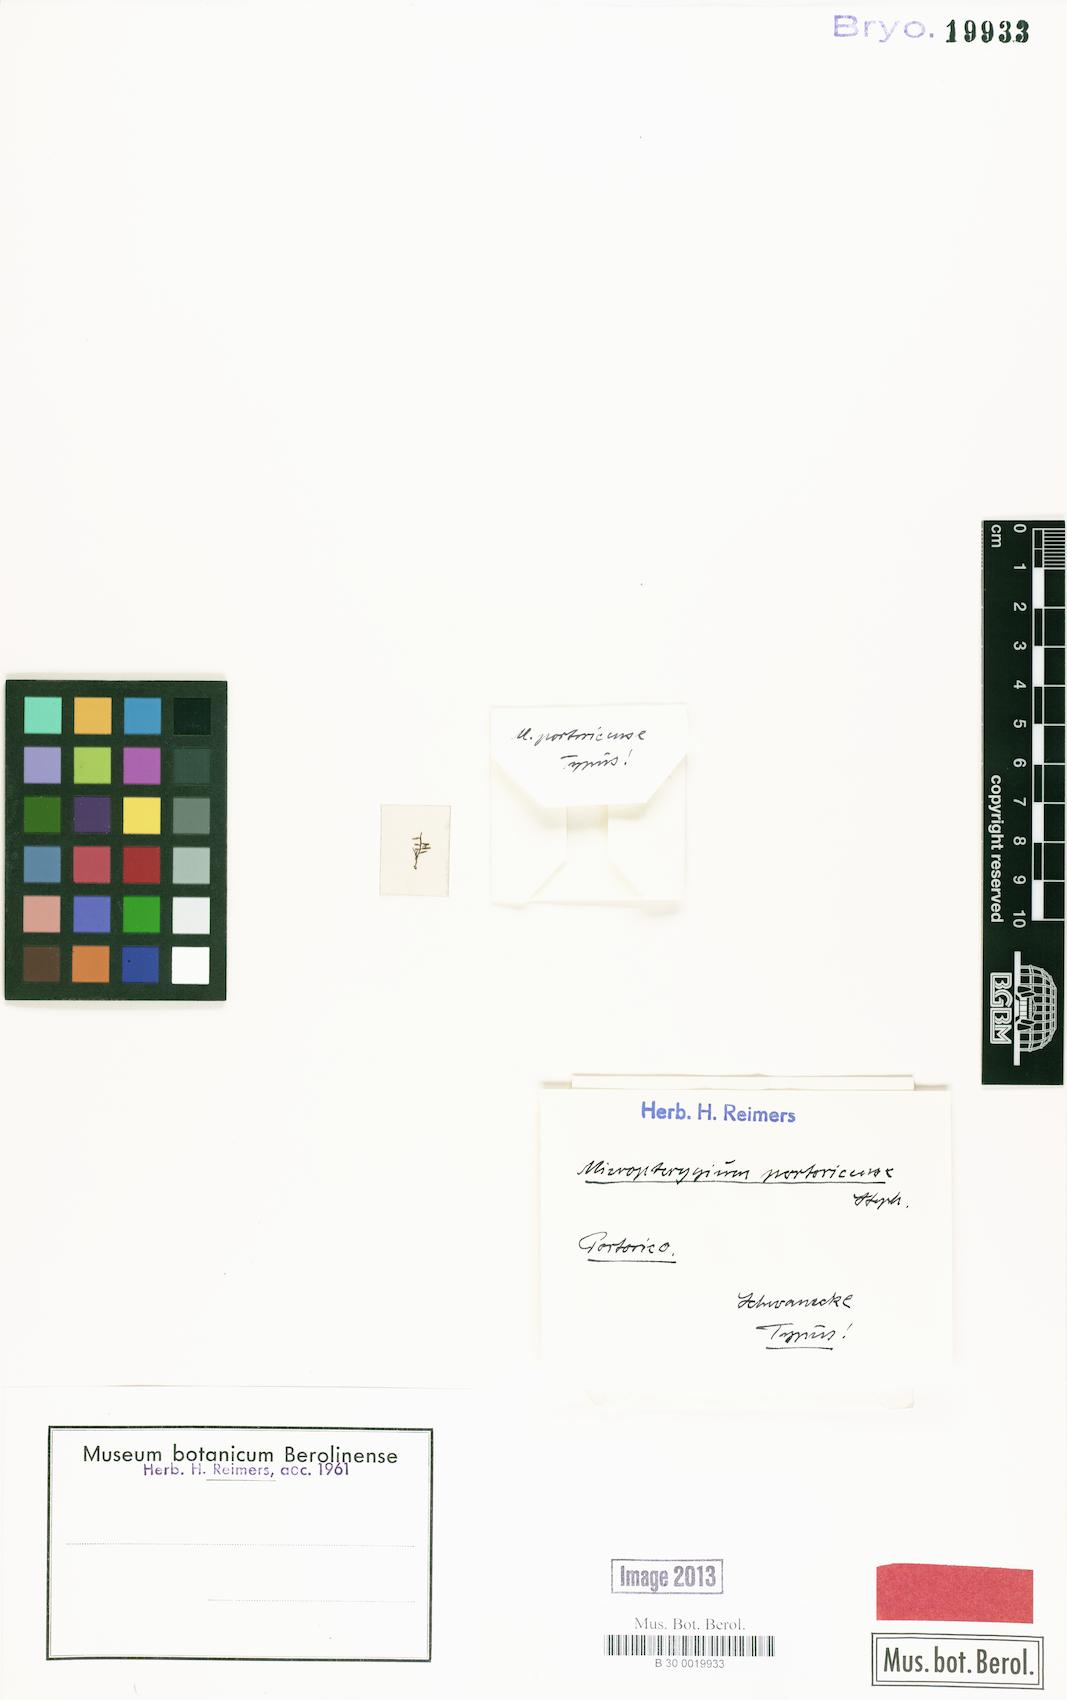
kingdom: Plantae
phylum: Marchantiophyta
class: Jungermanniopsida
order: Jungermanniales
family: Lepidoziaceae
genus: Micropterygium
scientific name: Micropterygium carinatum
